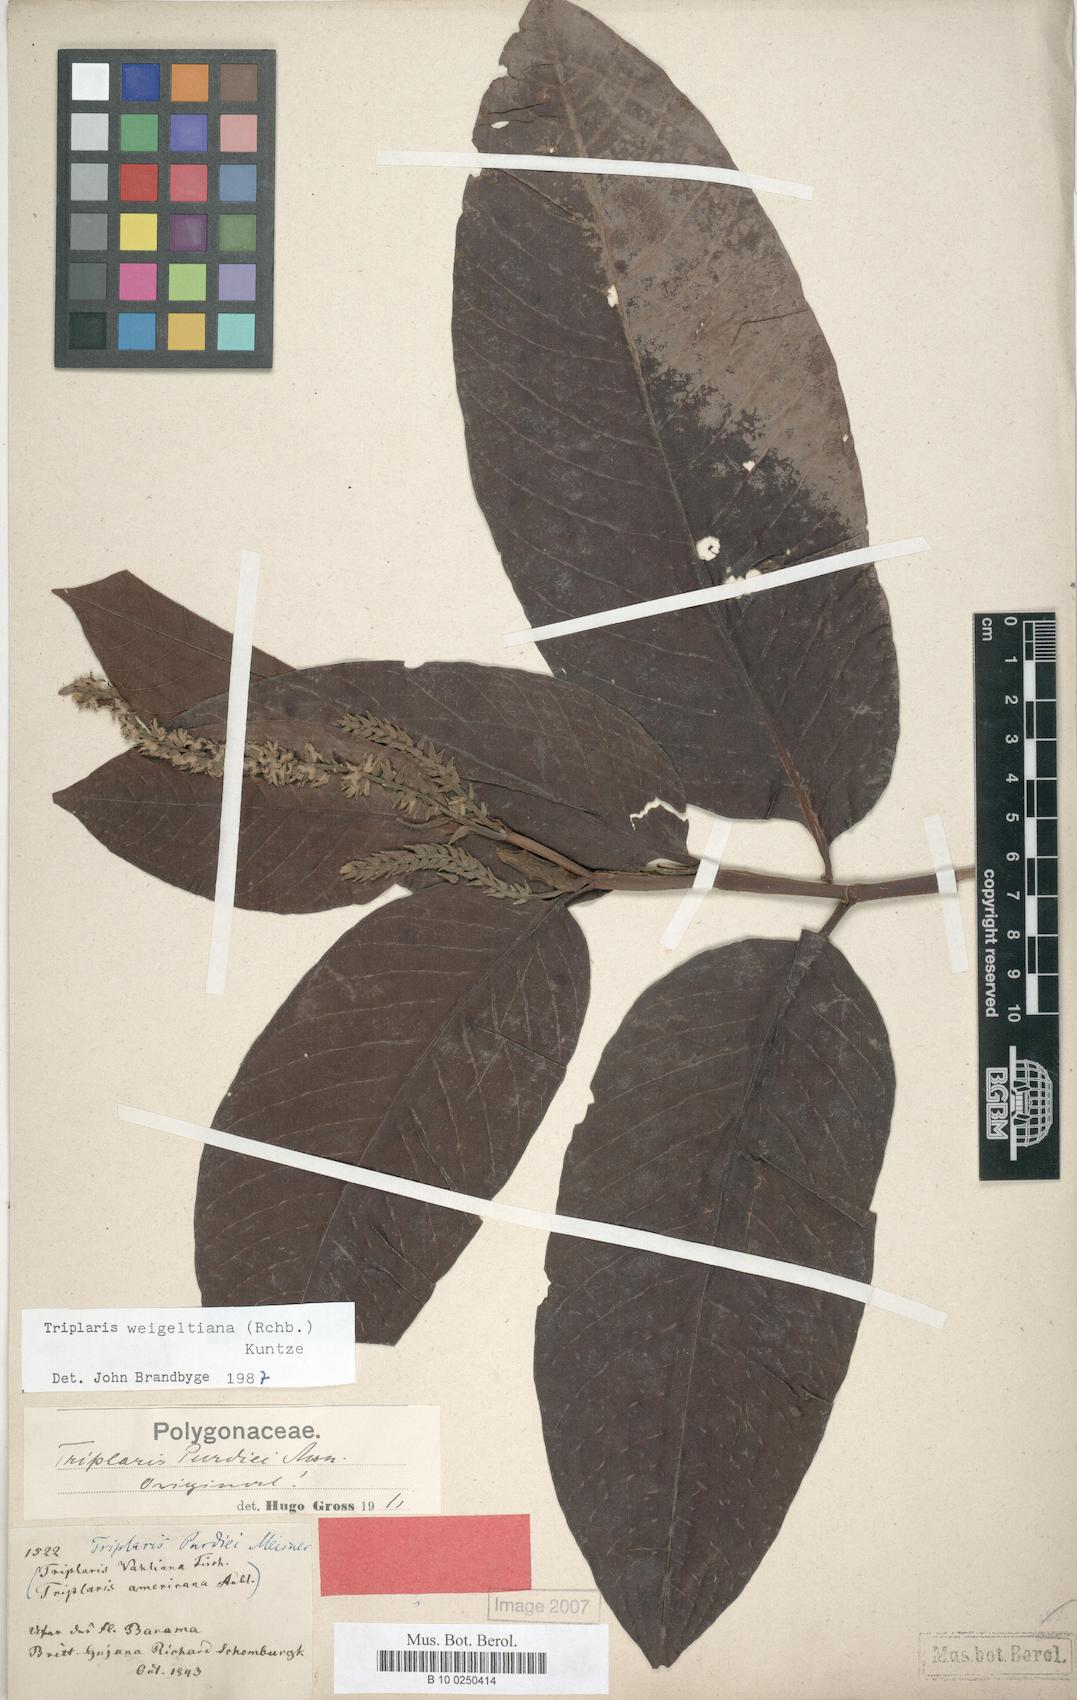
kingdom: Plantae
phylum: Tracheophyta
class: Magnoliopsida
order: Caryophyllales
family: Polygonaceae
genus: Triplaris
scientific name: Triplaris weigeltiana
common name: Long john
